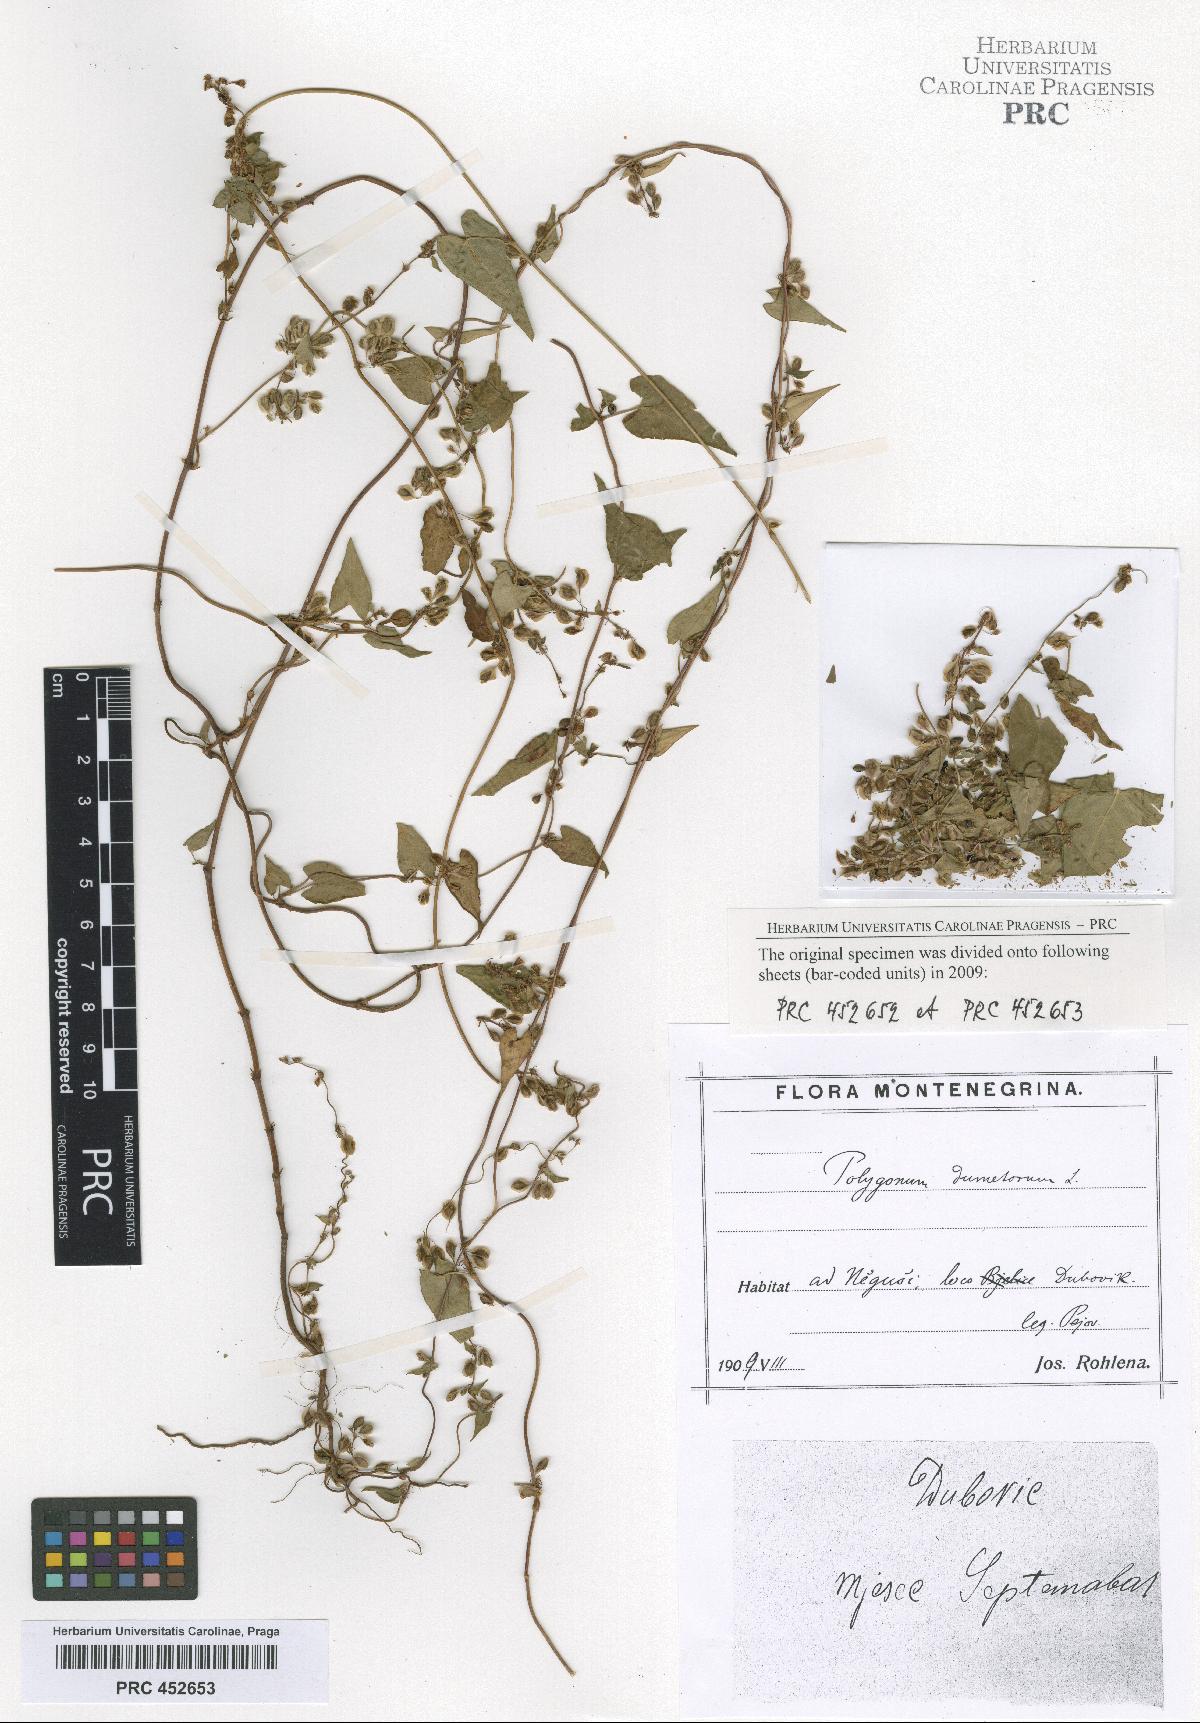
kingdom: Plantae
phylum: Tracheophyta
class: Magnoliopsida
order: Caryophyllales
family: Polygonaceae
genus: Fallopia
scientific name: Fallopia dumetorum
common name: Copse-bindweed
